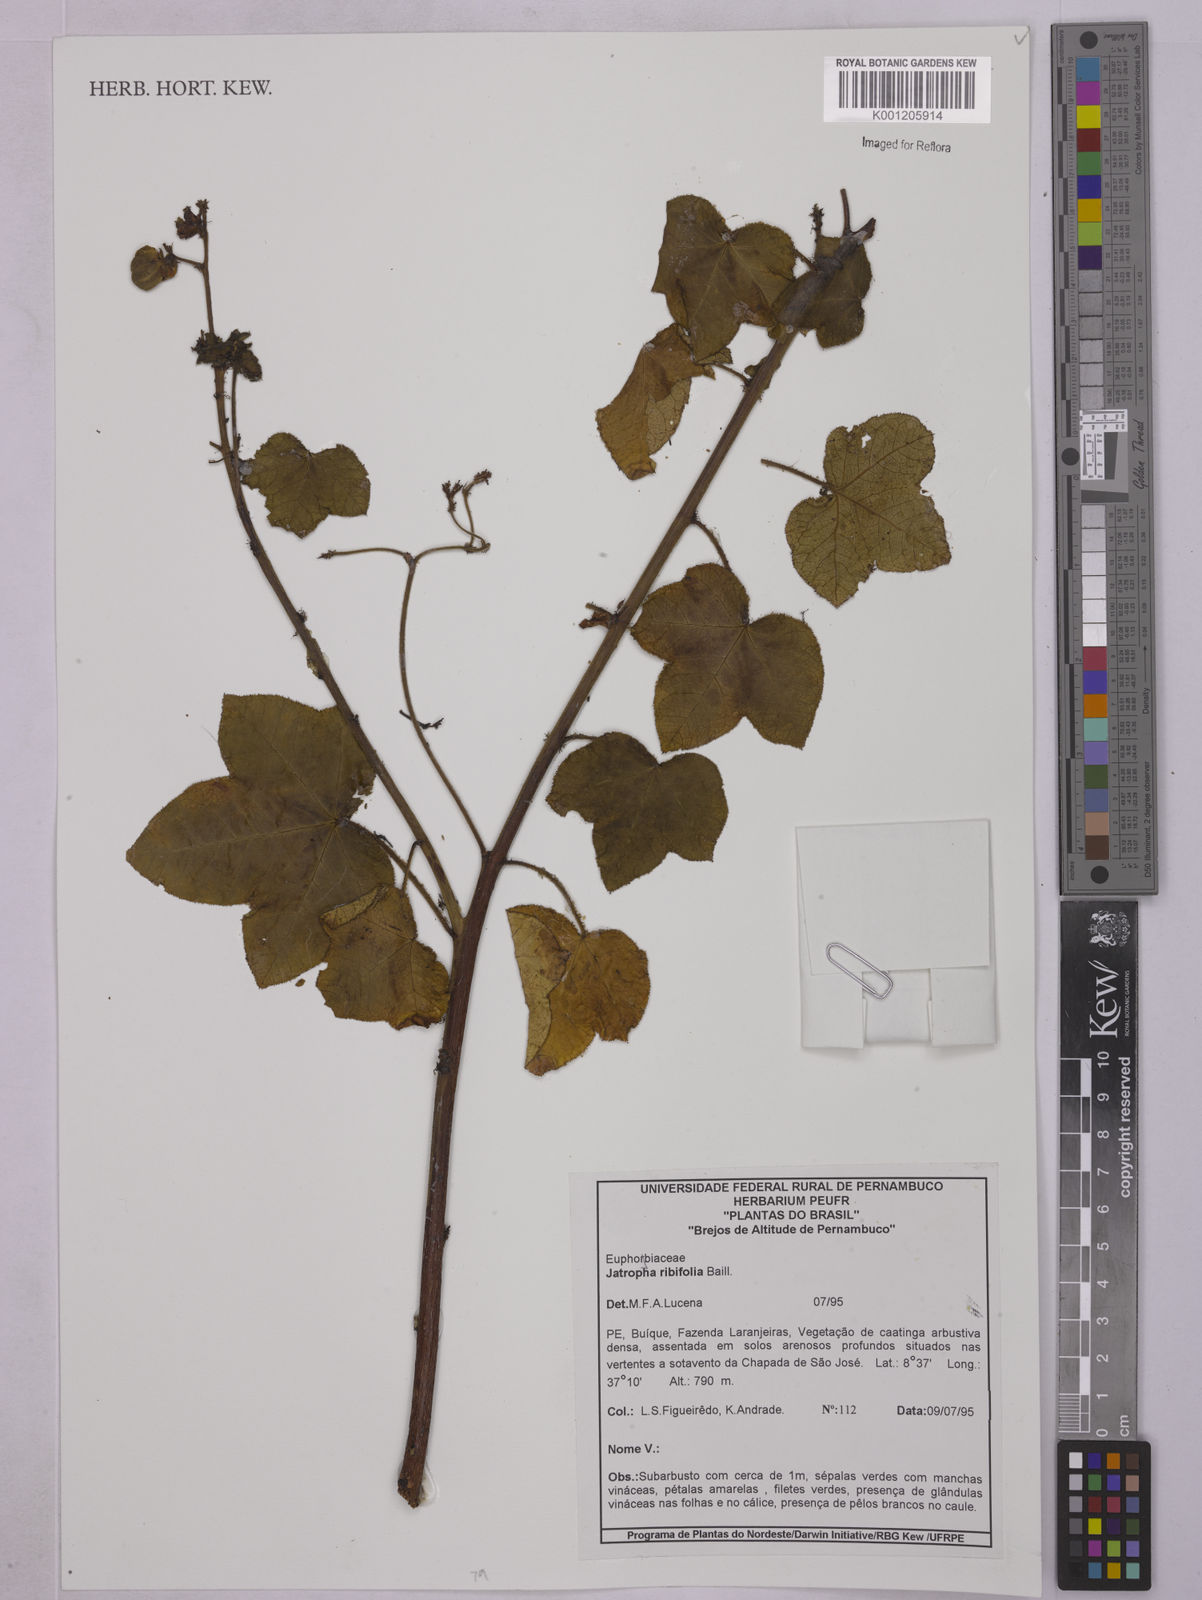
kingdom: Plantae
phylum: Tracheophyta
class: Magnoliopsida
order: Malpighiales
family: Euphorbiaceae
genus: Jatropha
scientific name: Jatropha ribifolia
